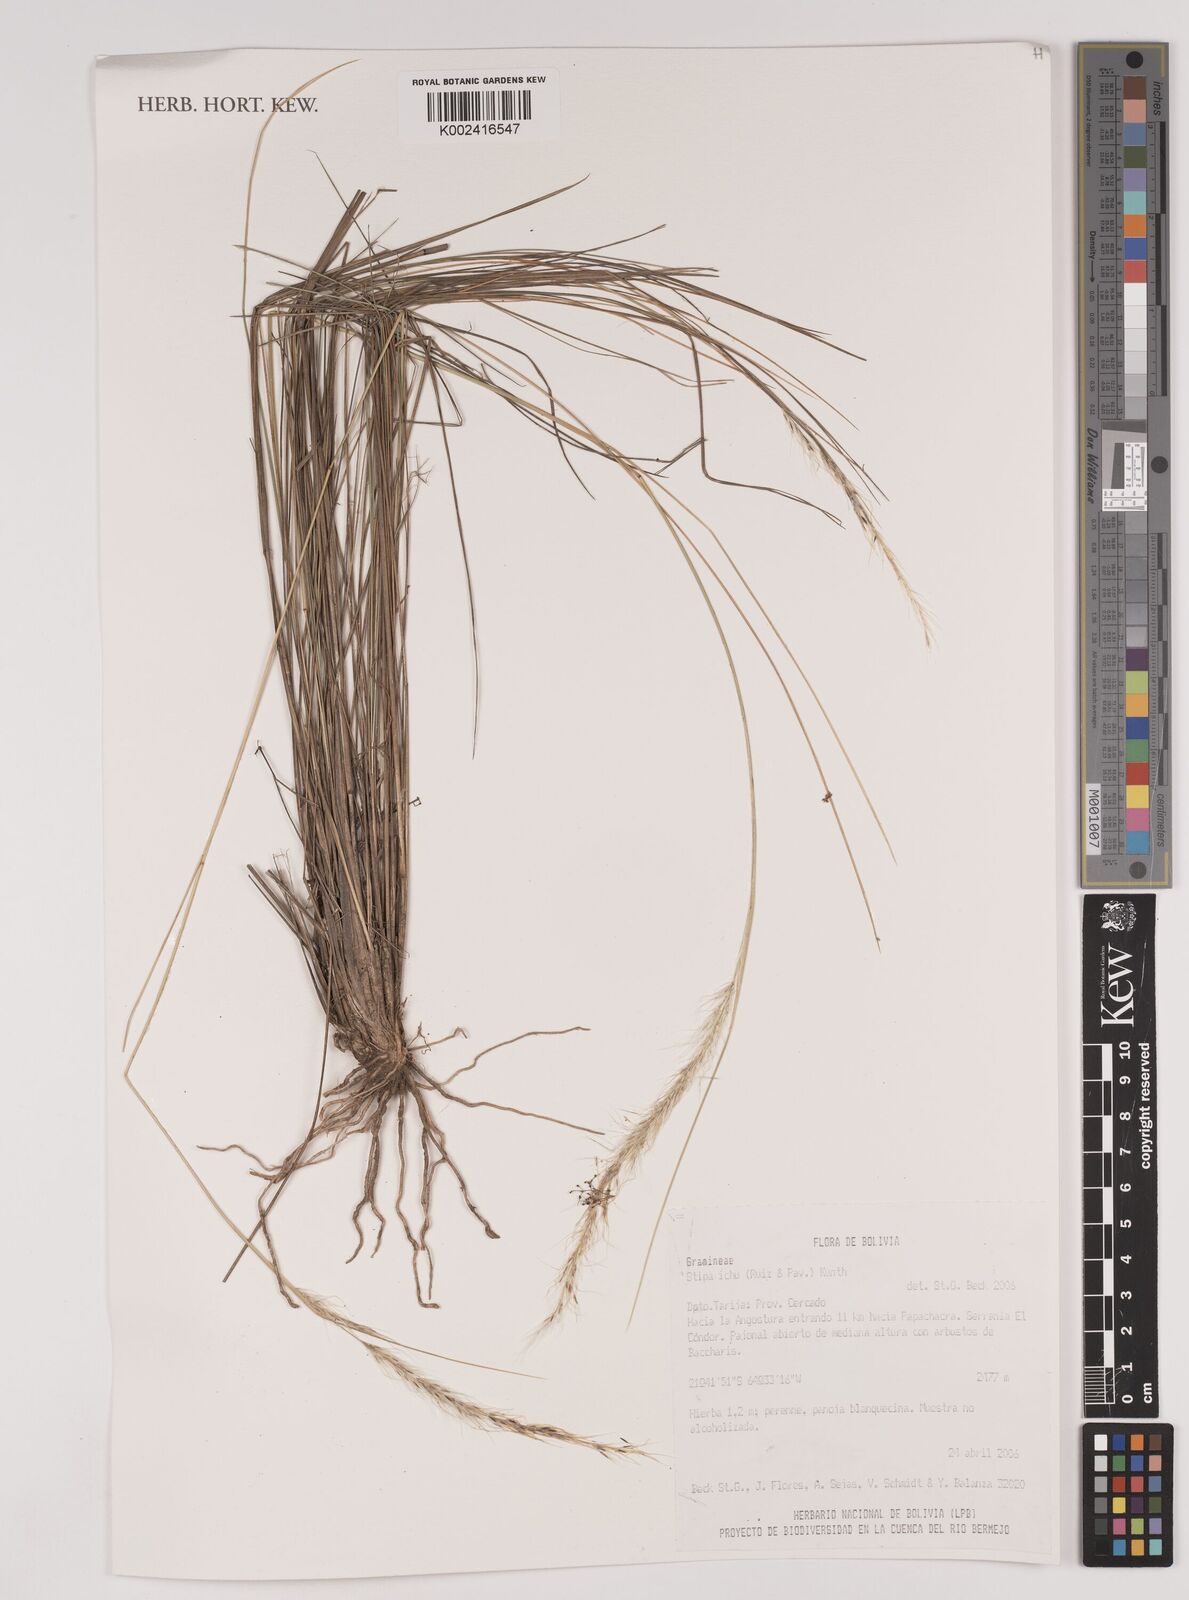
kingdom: Plantae
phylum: Tracheophyta
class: Liliopsida
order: Poales
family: Poaceae
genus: Jarava
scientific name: Jarava ichu
